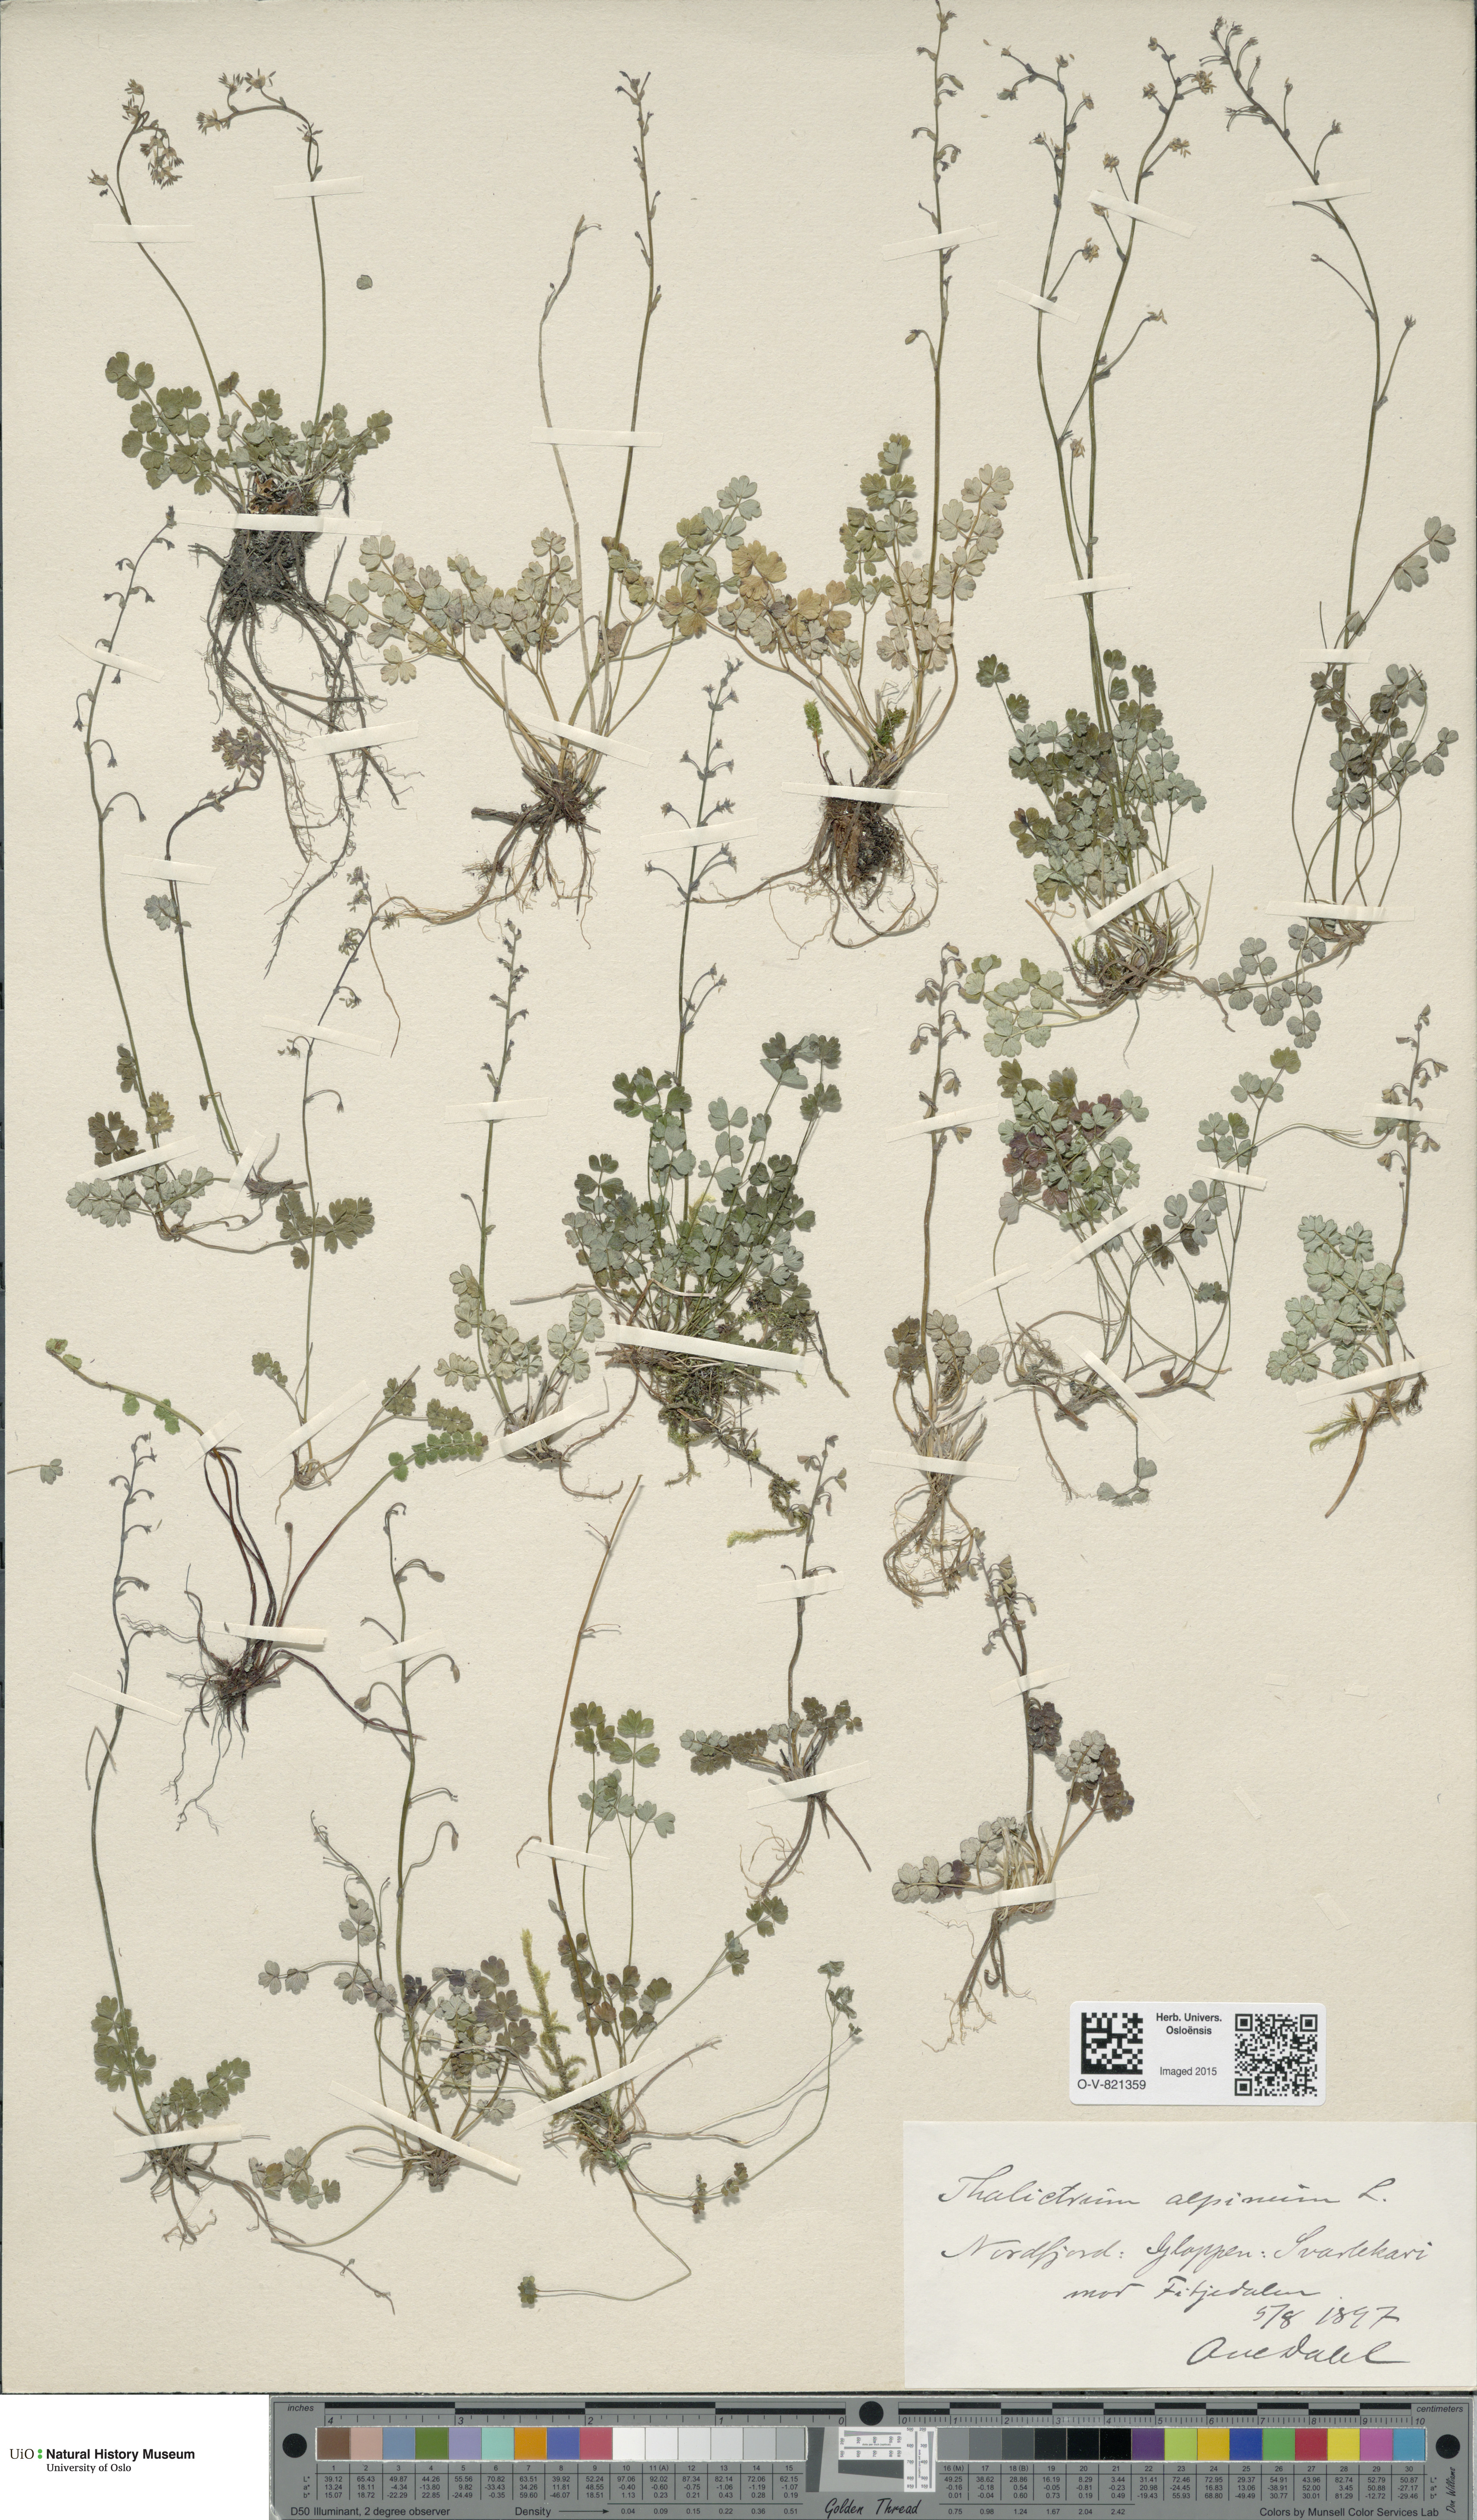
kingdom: Plantae
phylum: Tracheophyta
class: Magnoliopsida
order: Ranunculales
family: Ranunculaceae
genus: Thalictrum
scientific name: Thalictrum alpinum
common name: Alpine meadow-rue
